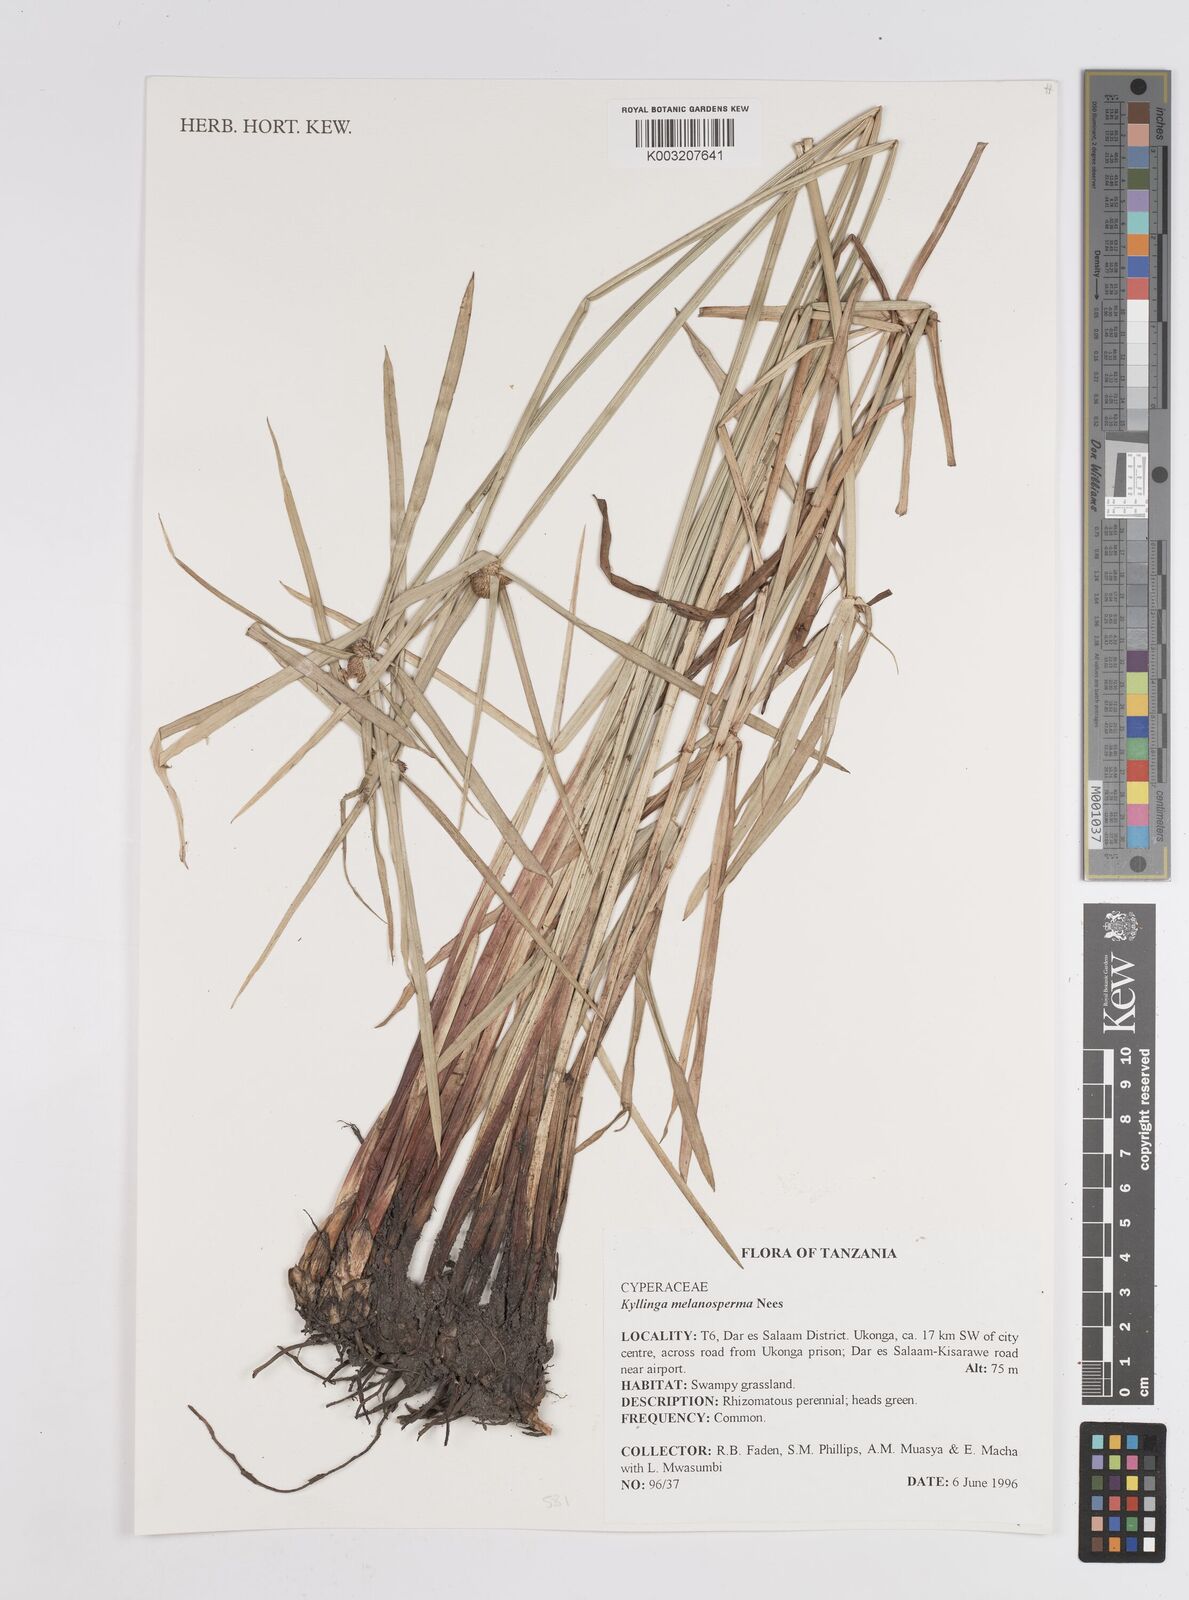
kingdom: Plantae
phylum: Tracheophyta
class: Liliopsida
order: Poales
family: Cyperaceae
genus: Cyperus
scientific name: Cyperus
